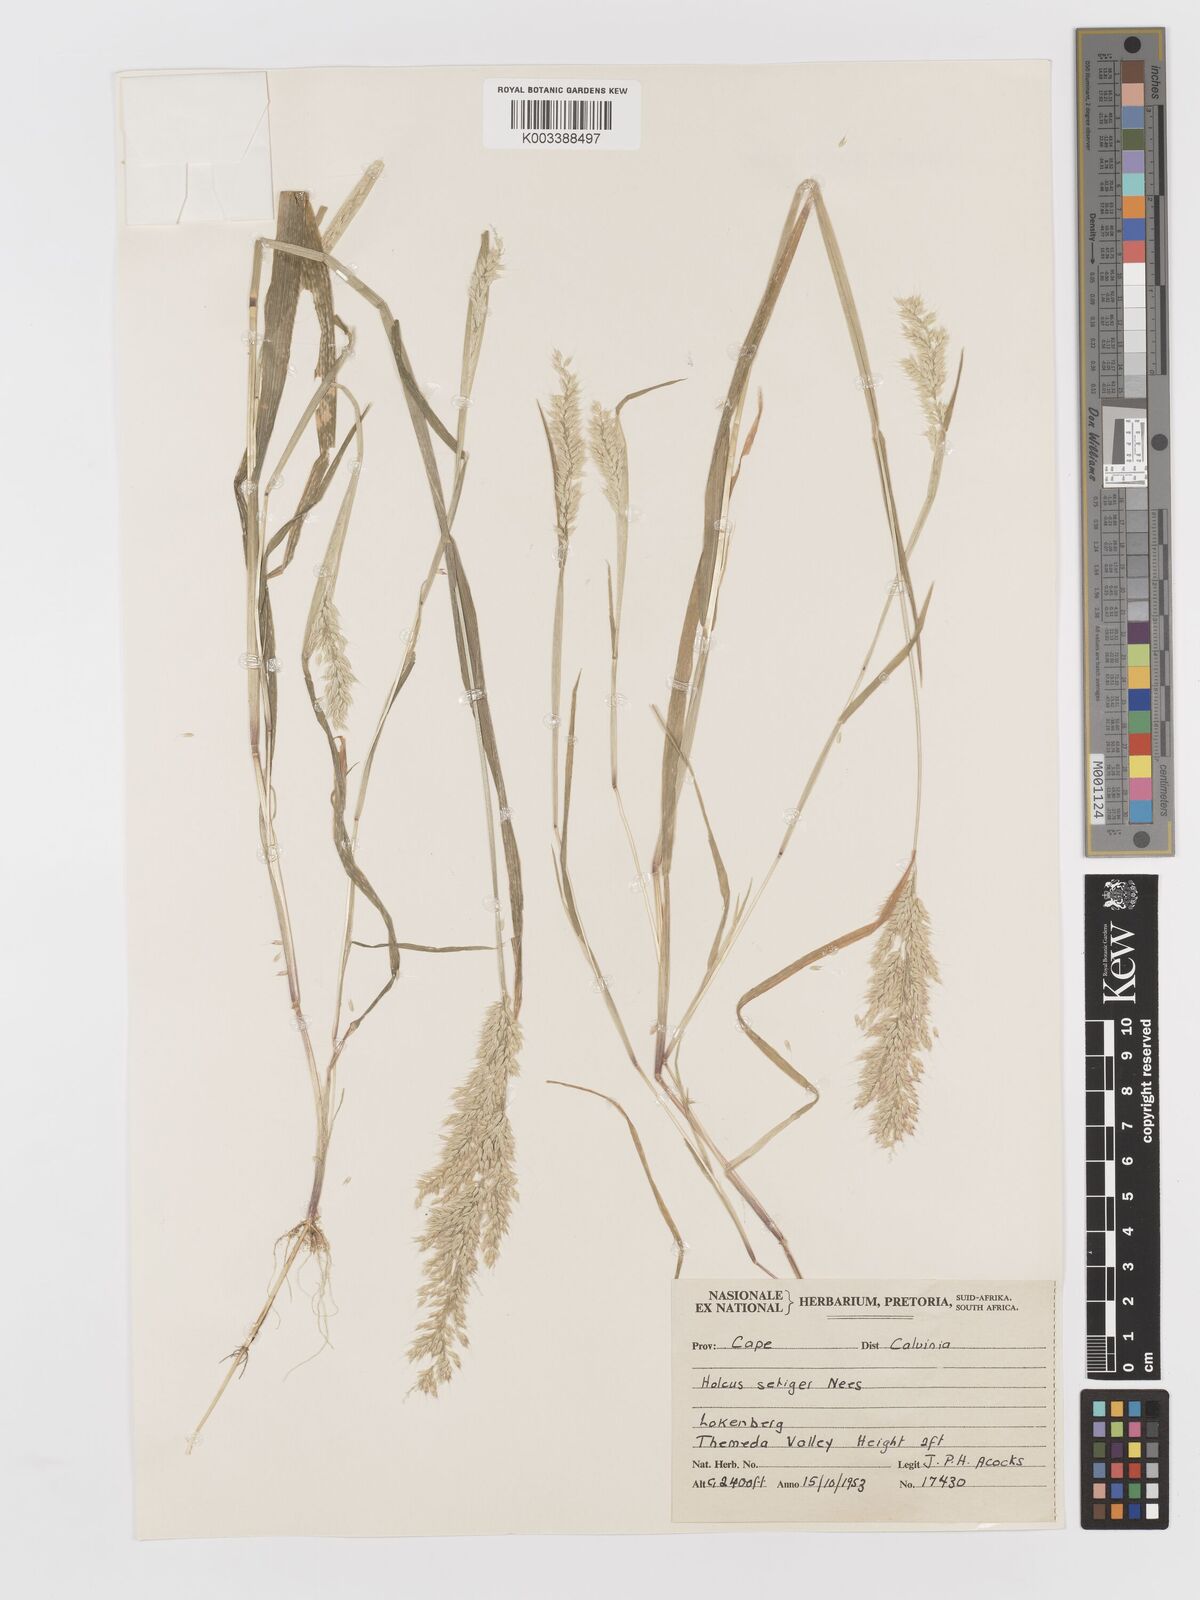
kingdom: Plantae
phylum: Tracheophyta
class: Liliopsida
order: Poales
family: Poaceae
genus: Holcus
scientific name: Holcus setiger
